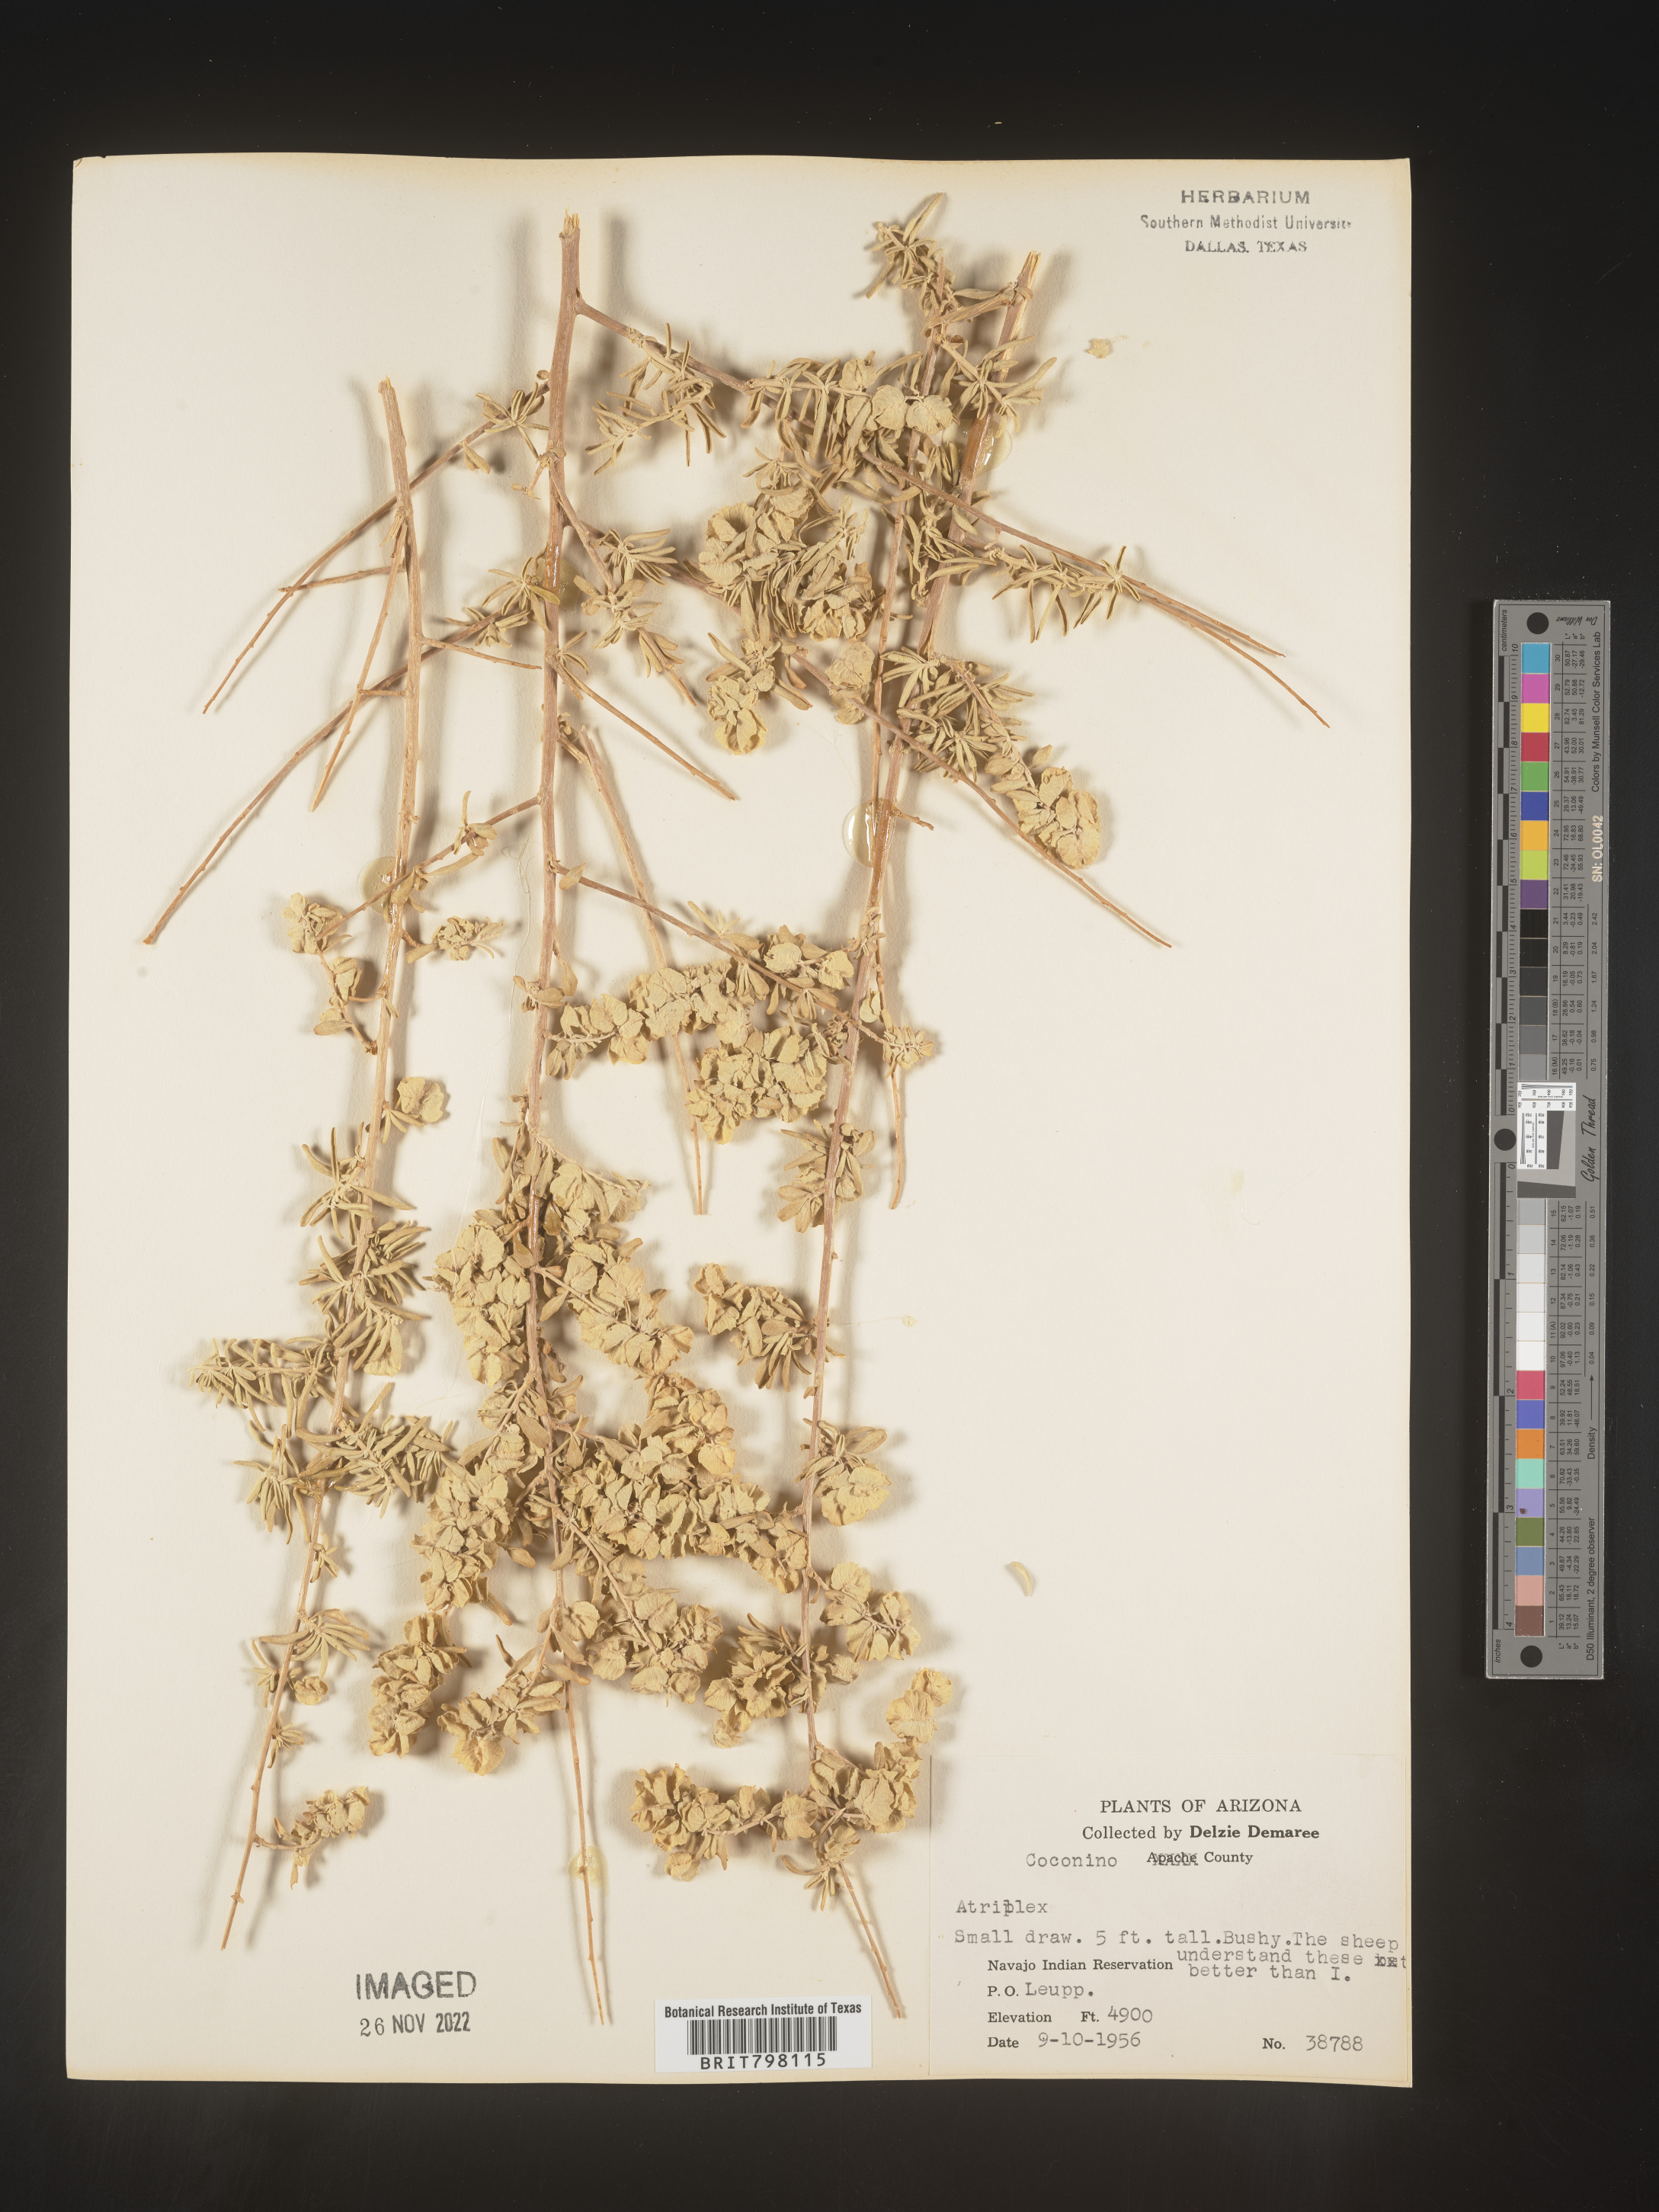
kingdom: Plantae
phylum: Tracheophyta
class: Magnoliopsida
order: Caryophyllales
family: Amaranthaceae
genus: Atriplex
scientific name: Atriplex
